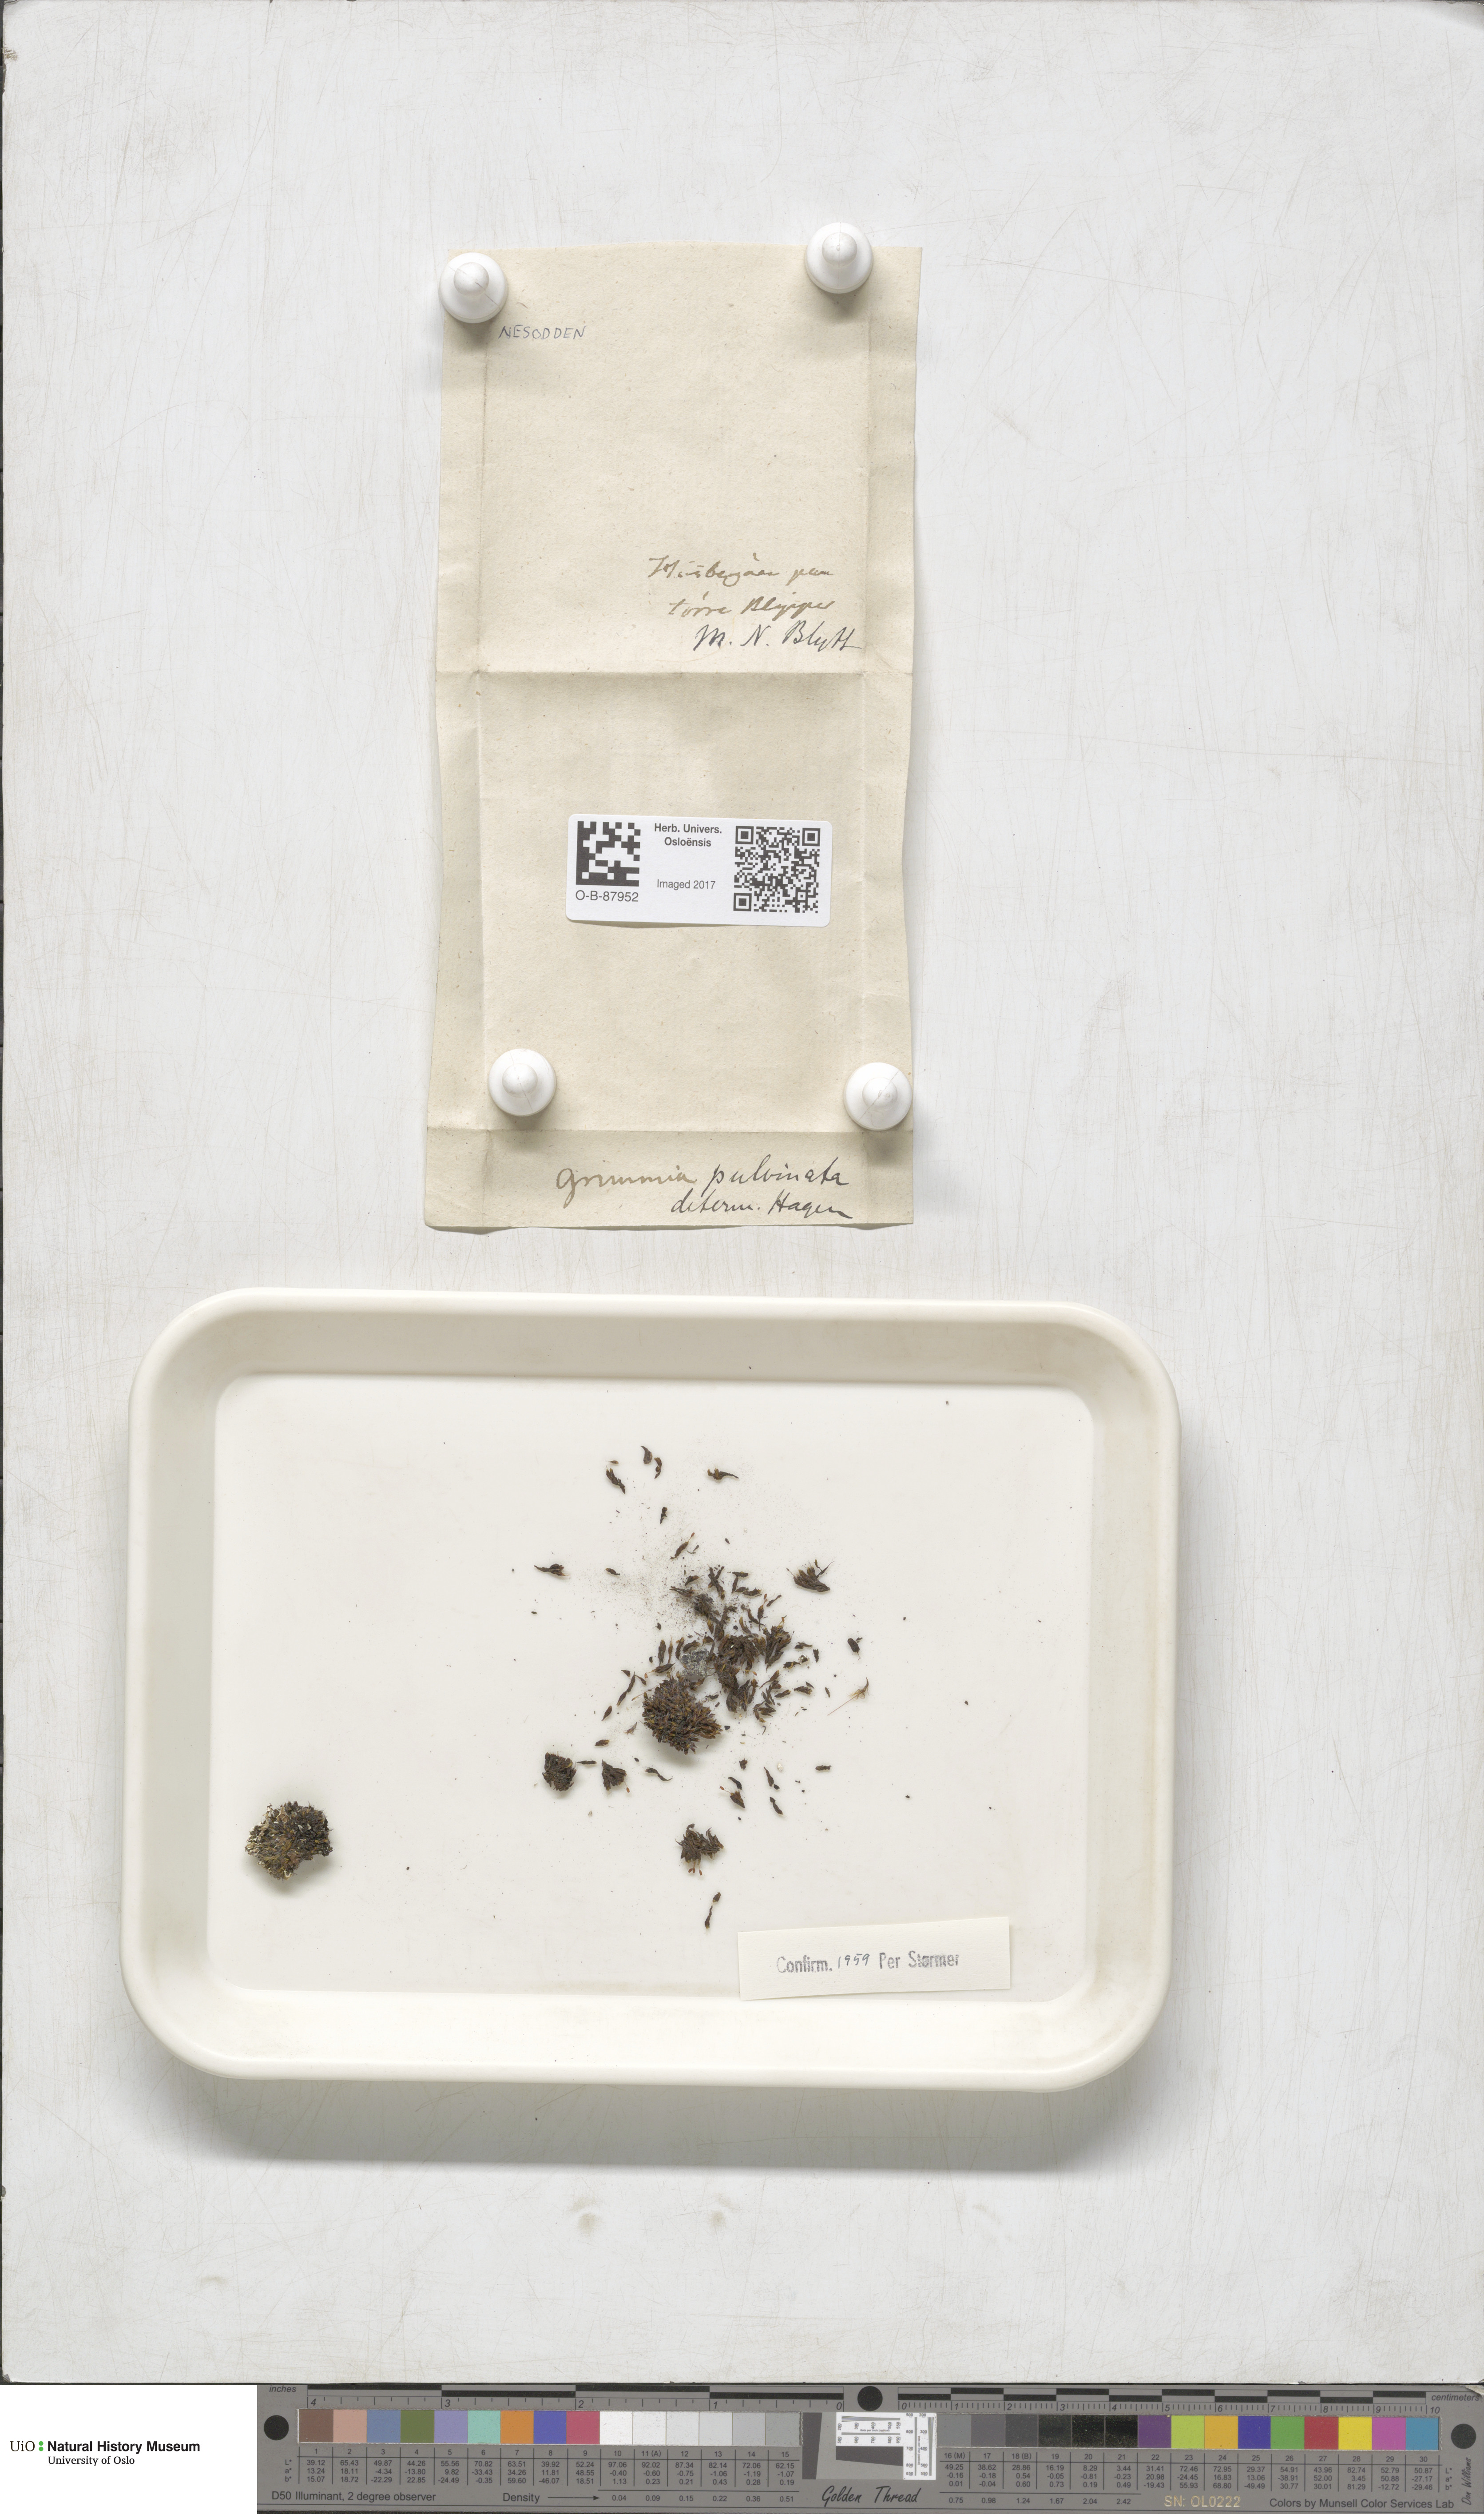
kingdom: Plantae
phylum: Bryophyta
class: Bryopsida
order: Grimmiales
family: Grimmiaceae
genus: Grimmia
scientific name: Grimmia pulvinata
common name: Grey-cushioned grimmia
